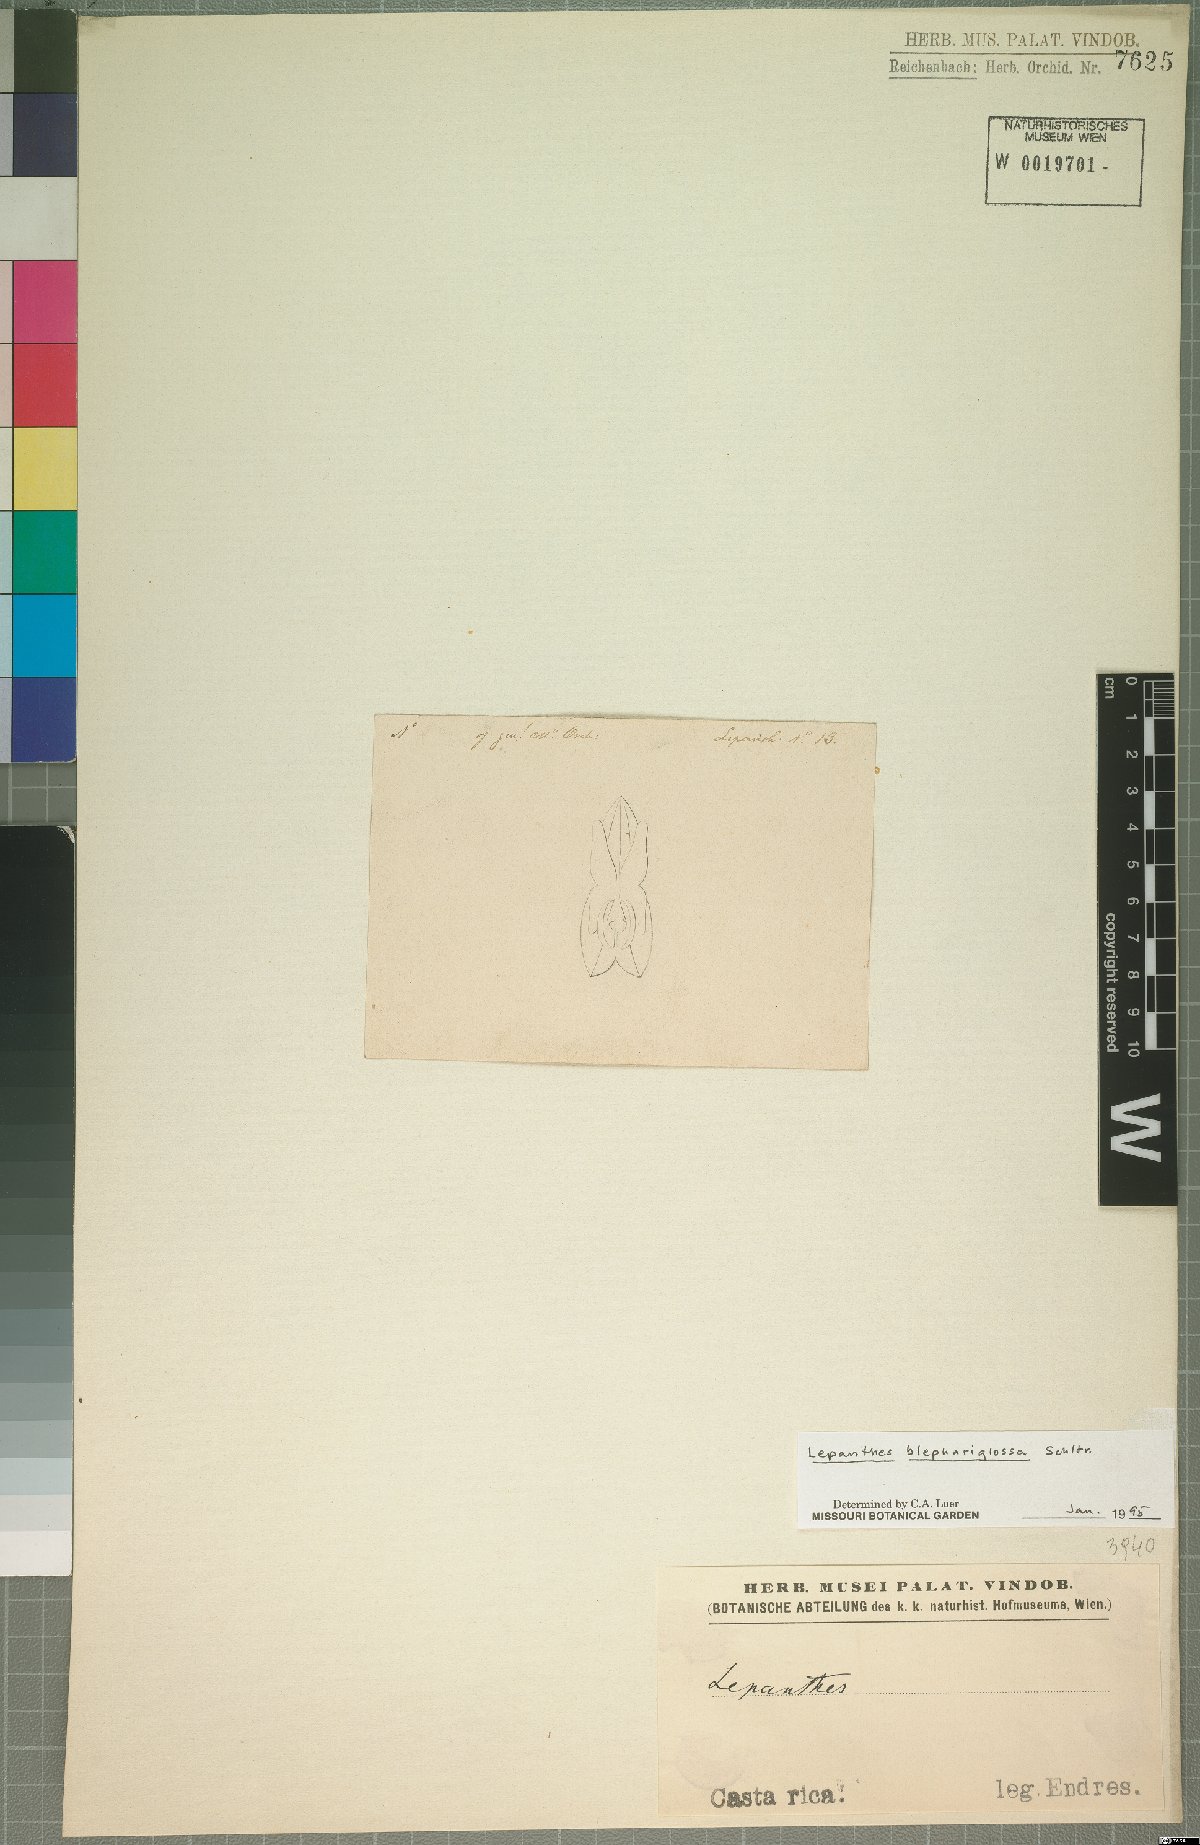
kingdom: Plantae
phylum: Tracheophyta
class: Liliopsida
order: Asparagales
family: Orchidaceae
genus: Lepanthes
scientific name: Lepanthes blephariglossa
